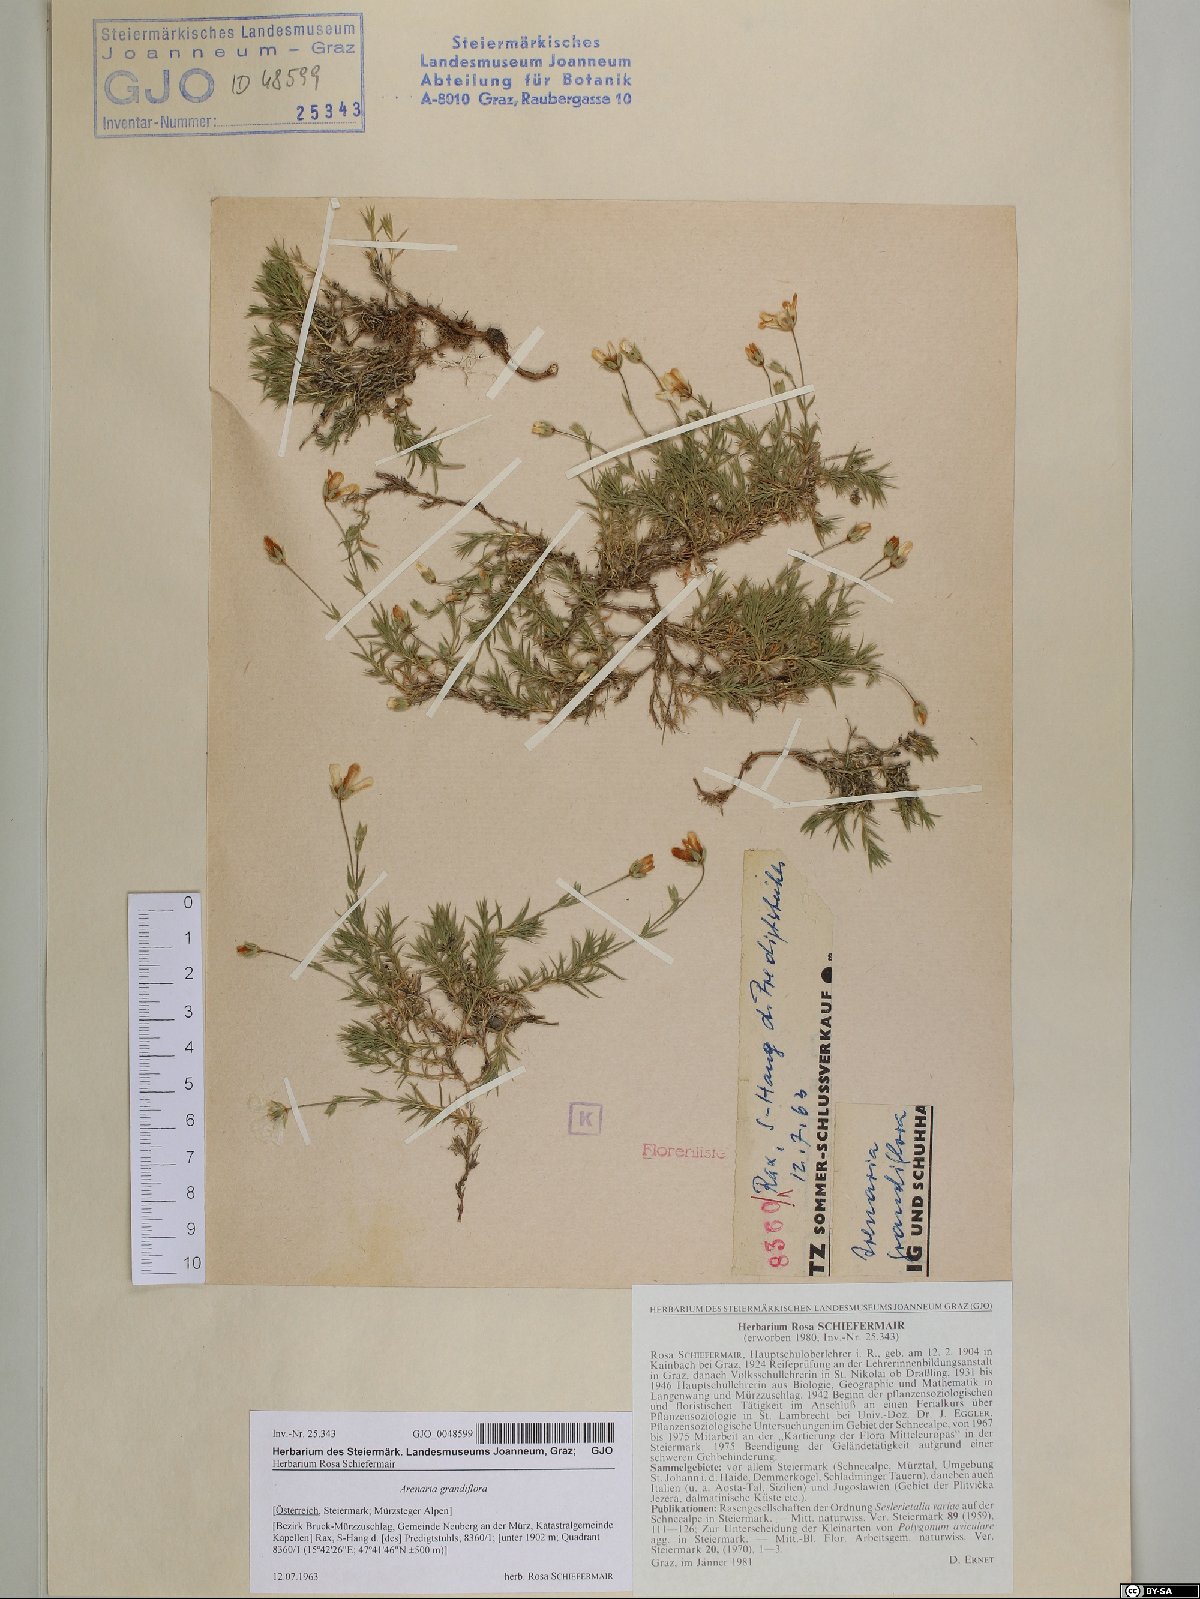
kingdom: Plantae
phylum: Tracheophyta
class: Magnoliopsida
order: Caryophyllales
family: Caryophyllaceae
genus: Arenaria
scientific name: Arenaria grandiflora
